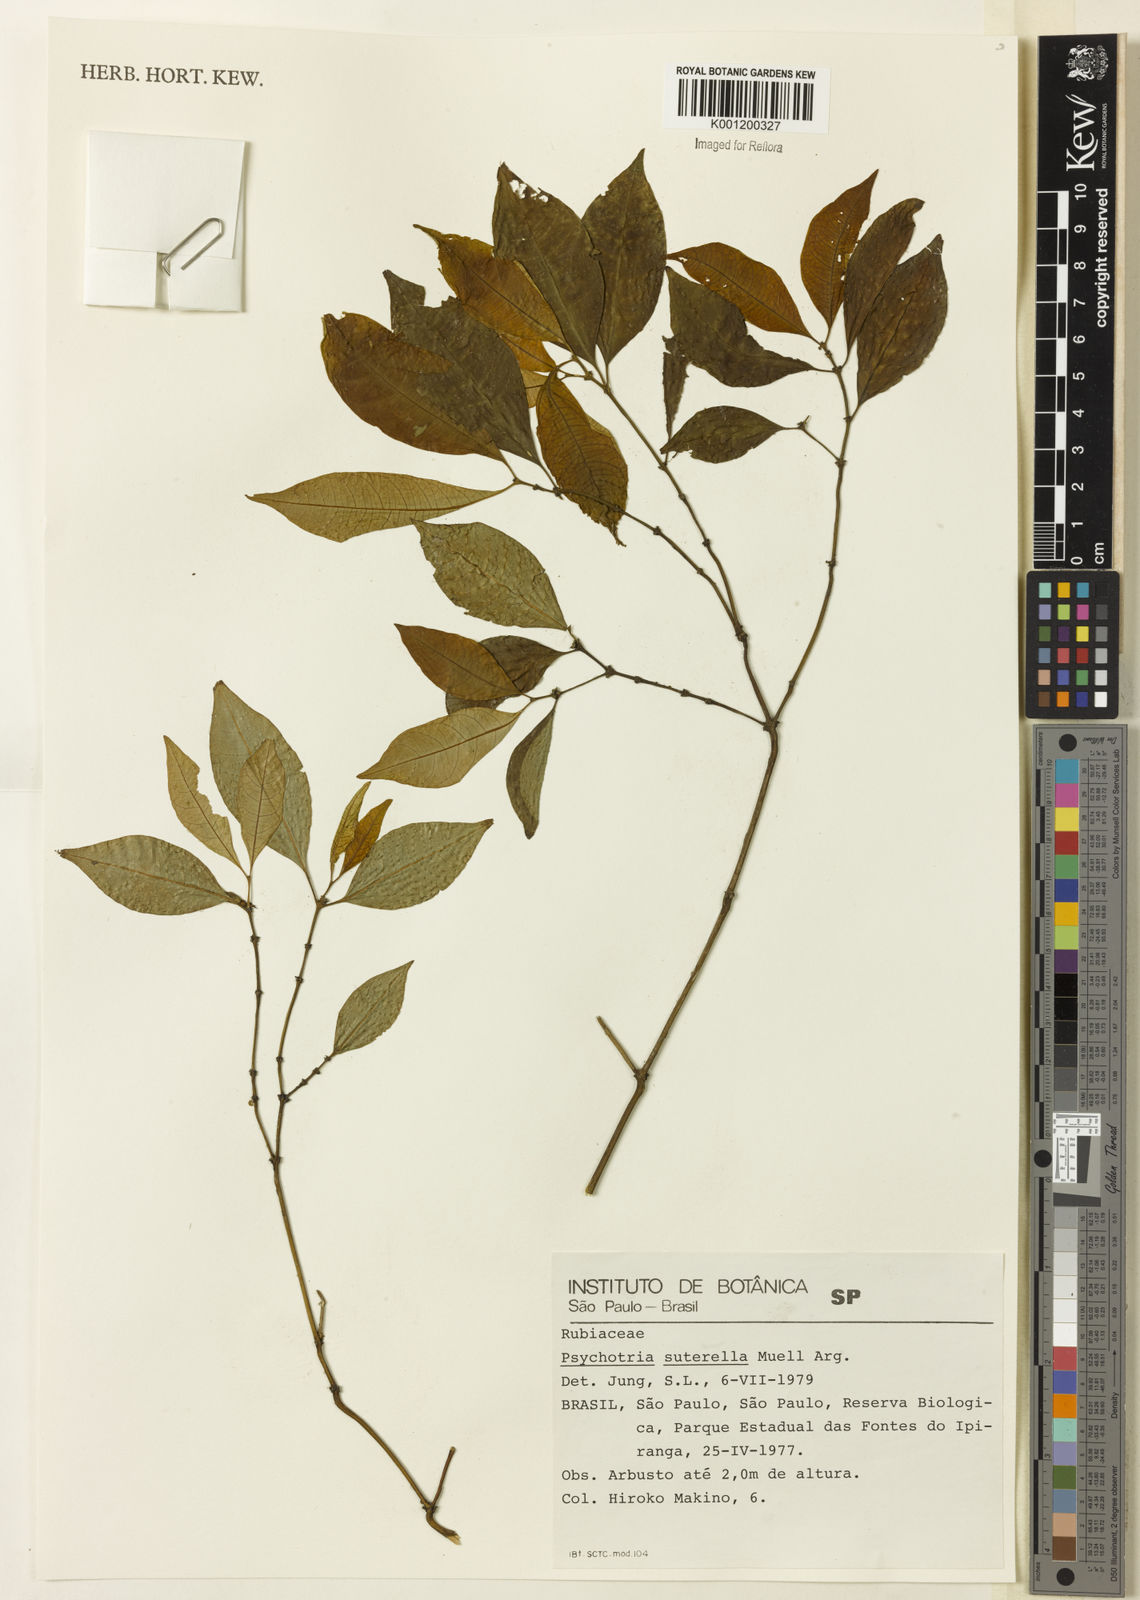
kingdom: Plantae
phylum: Tracheophyta
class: Magnoliopsida
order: Gentianales
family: Rubiaceae
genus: Psychotria
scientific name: Psychotria
